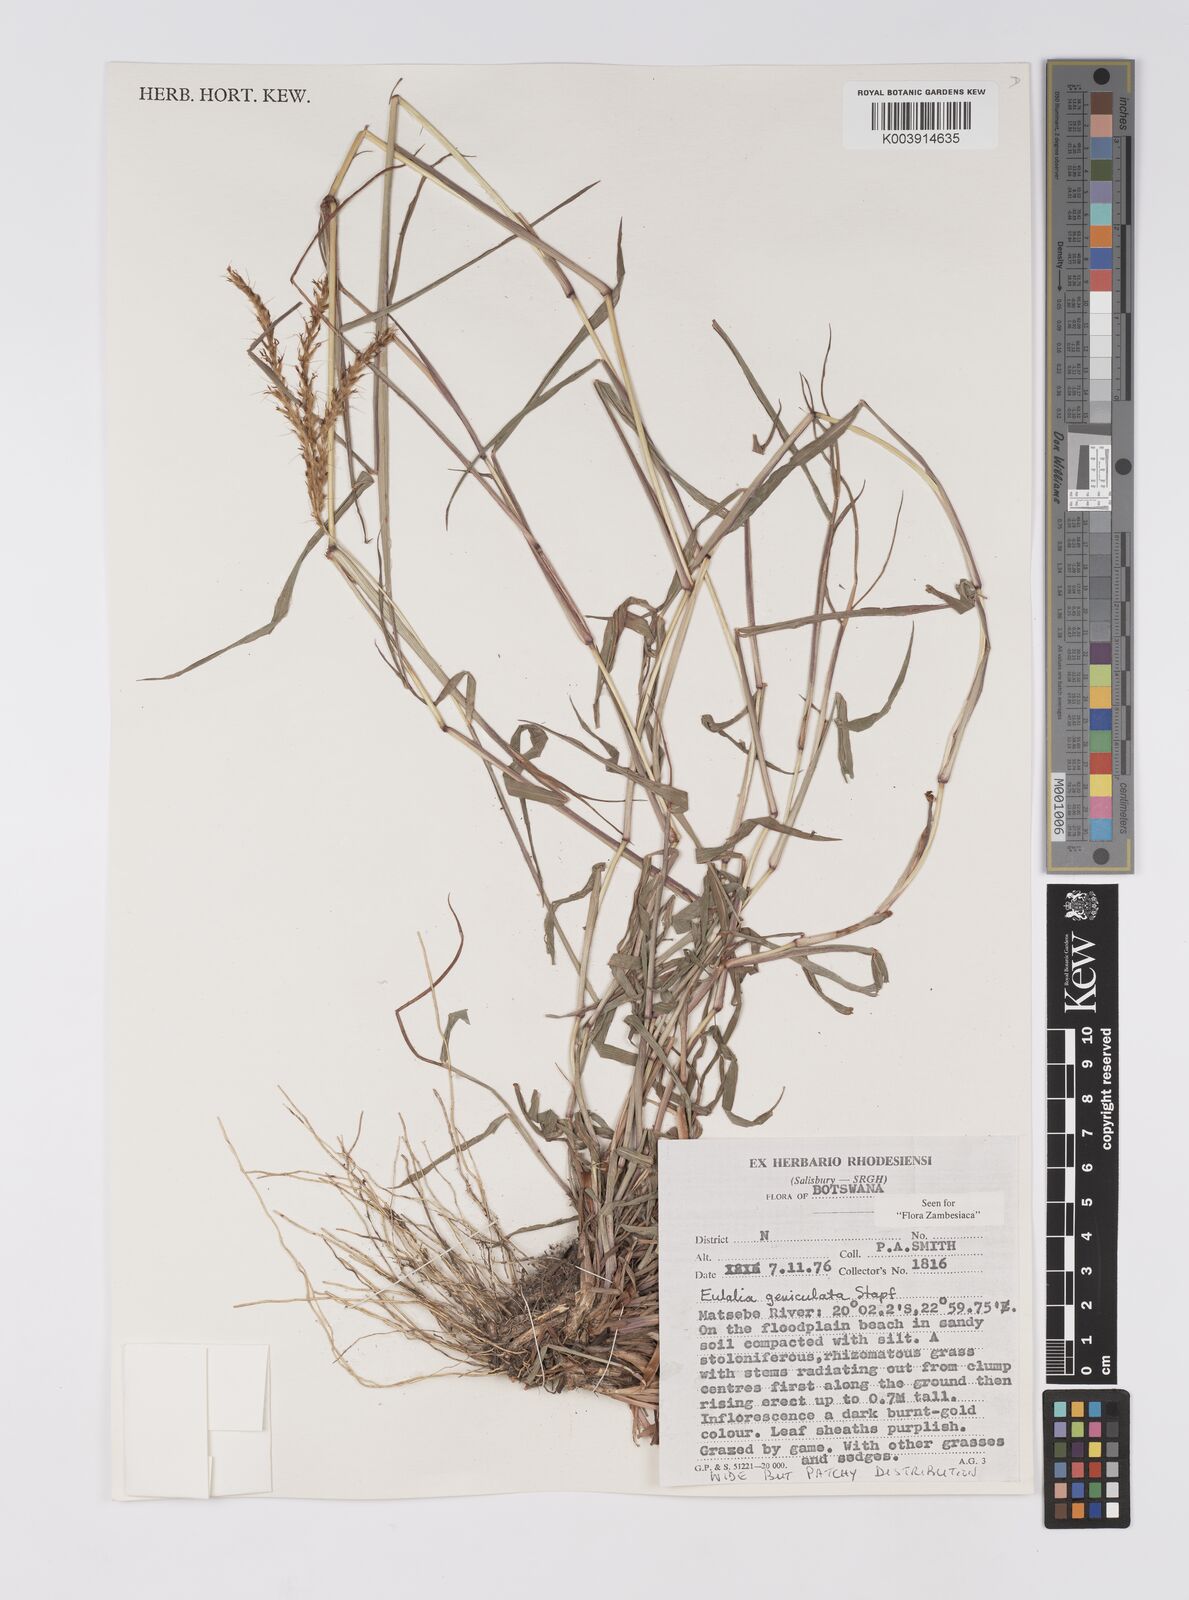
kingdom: Plantae
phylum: Tracheophyta
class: Liliopsida
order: Poales
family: Poaceae
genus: Eulalia
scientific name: Eulalia aurea
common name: Silky browntop
